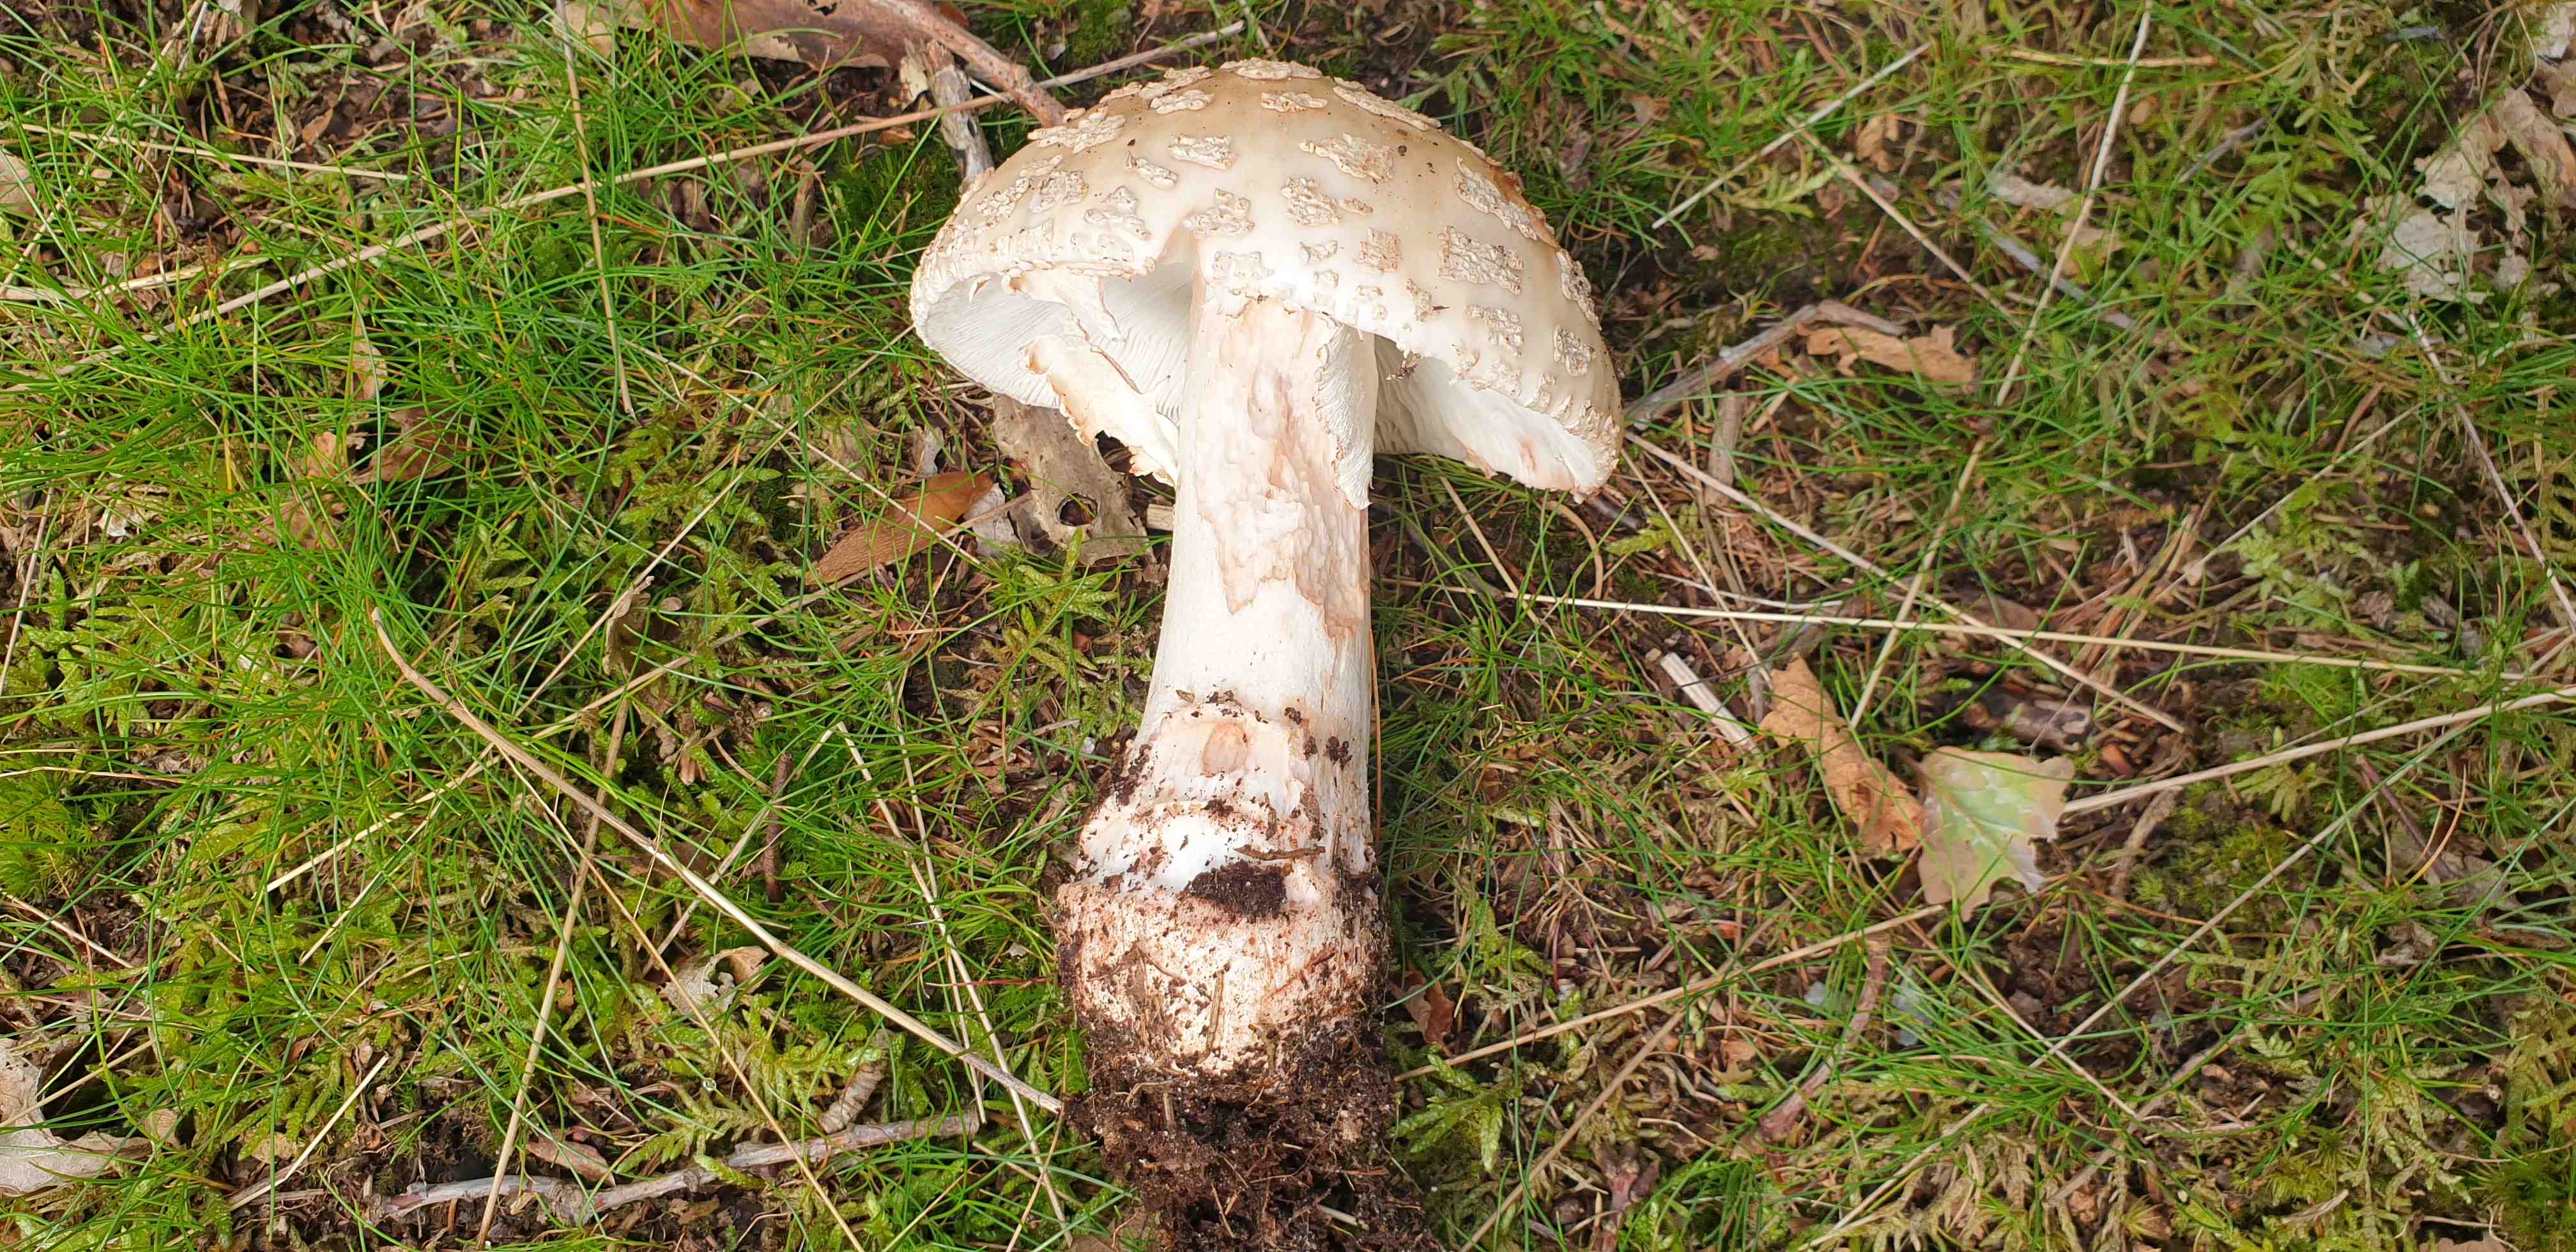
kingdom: Fungi
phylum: Basidiomycota
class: Agaricomycetes
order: Agaricales
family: Amanitaceae
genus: Amanita
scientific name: Amanita rubescens
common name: rødmende fluesvamp
